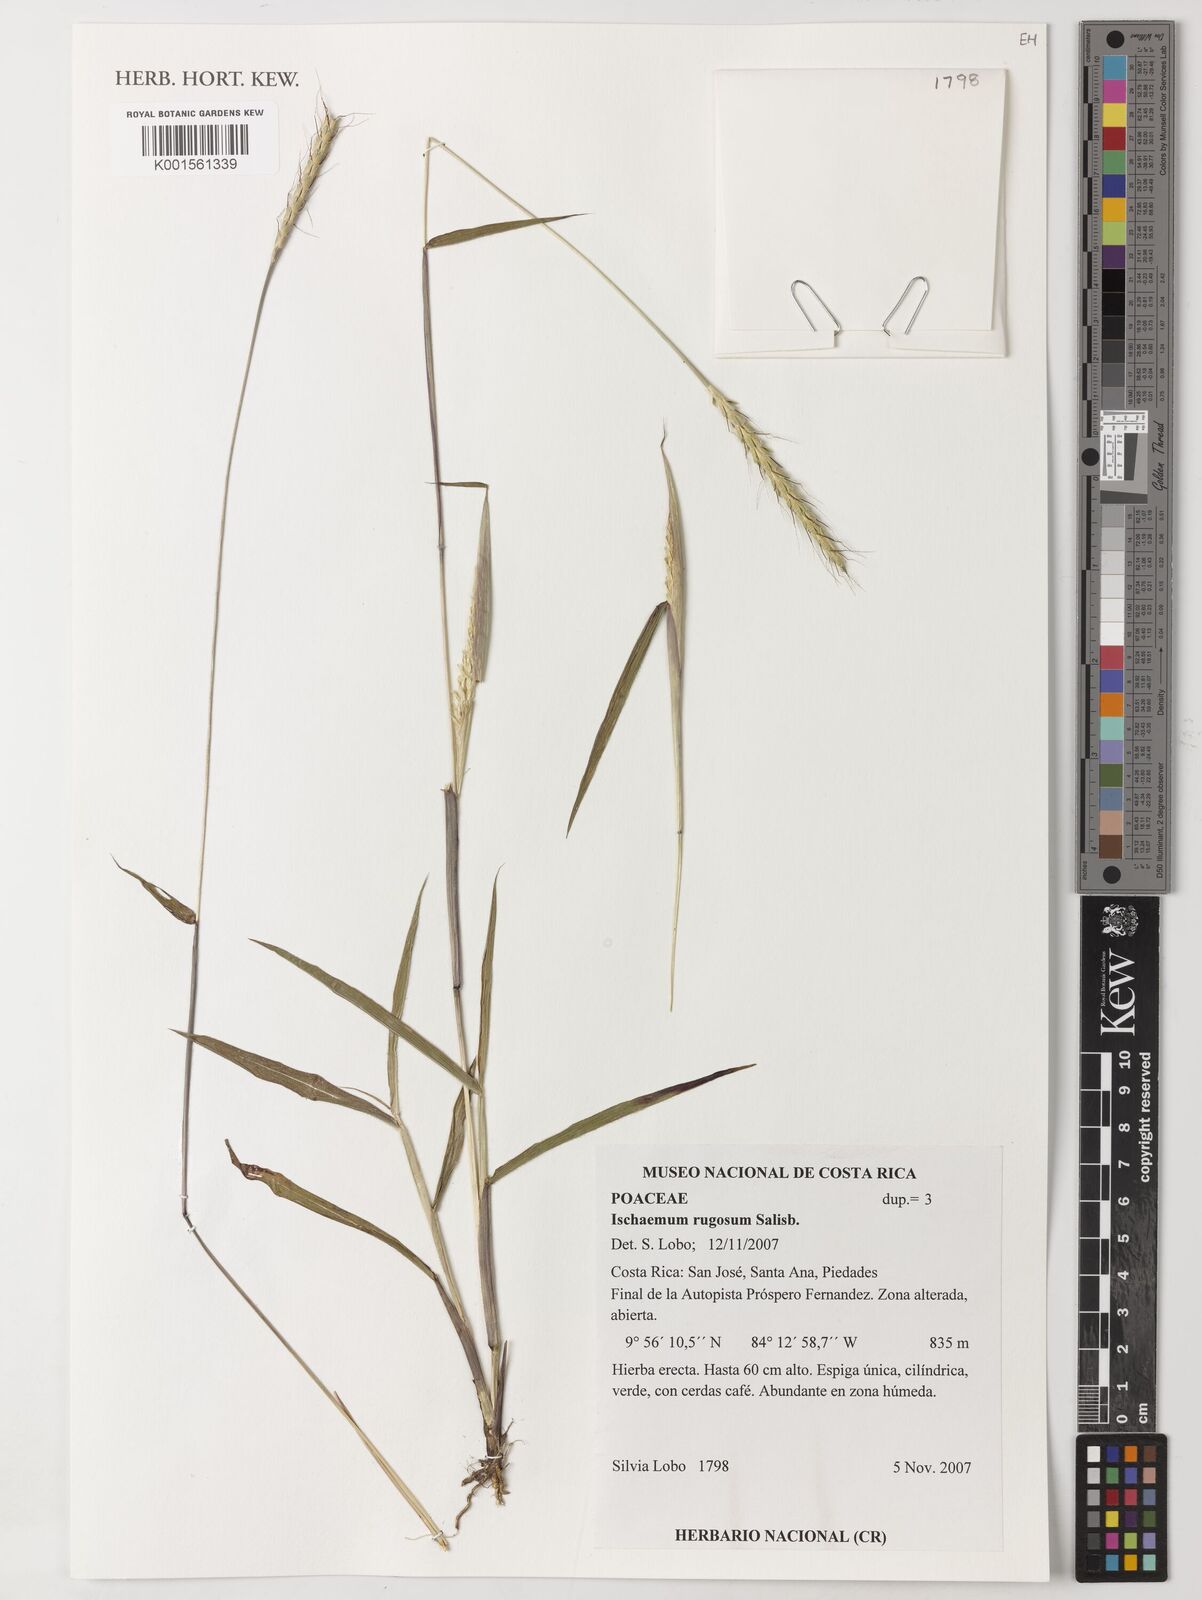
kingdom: Plantae
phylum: Tracheophyta
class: Liliopsida
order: Poales
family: Poaceae
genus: Ischaemum
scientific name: Ischaemum rugosum
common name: Saramatta grass
